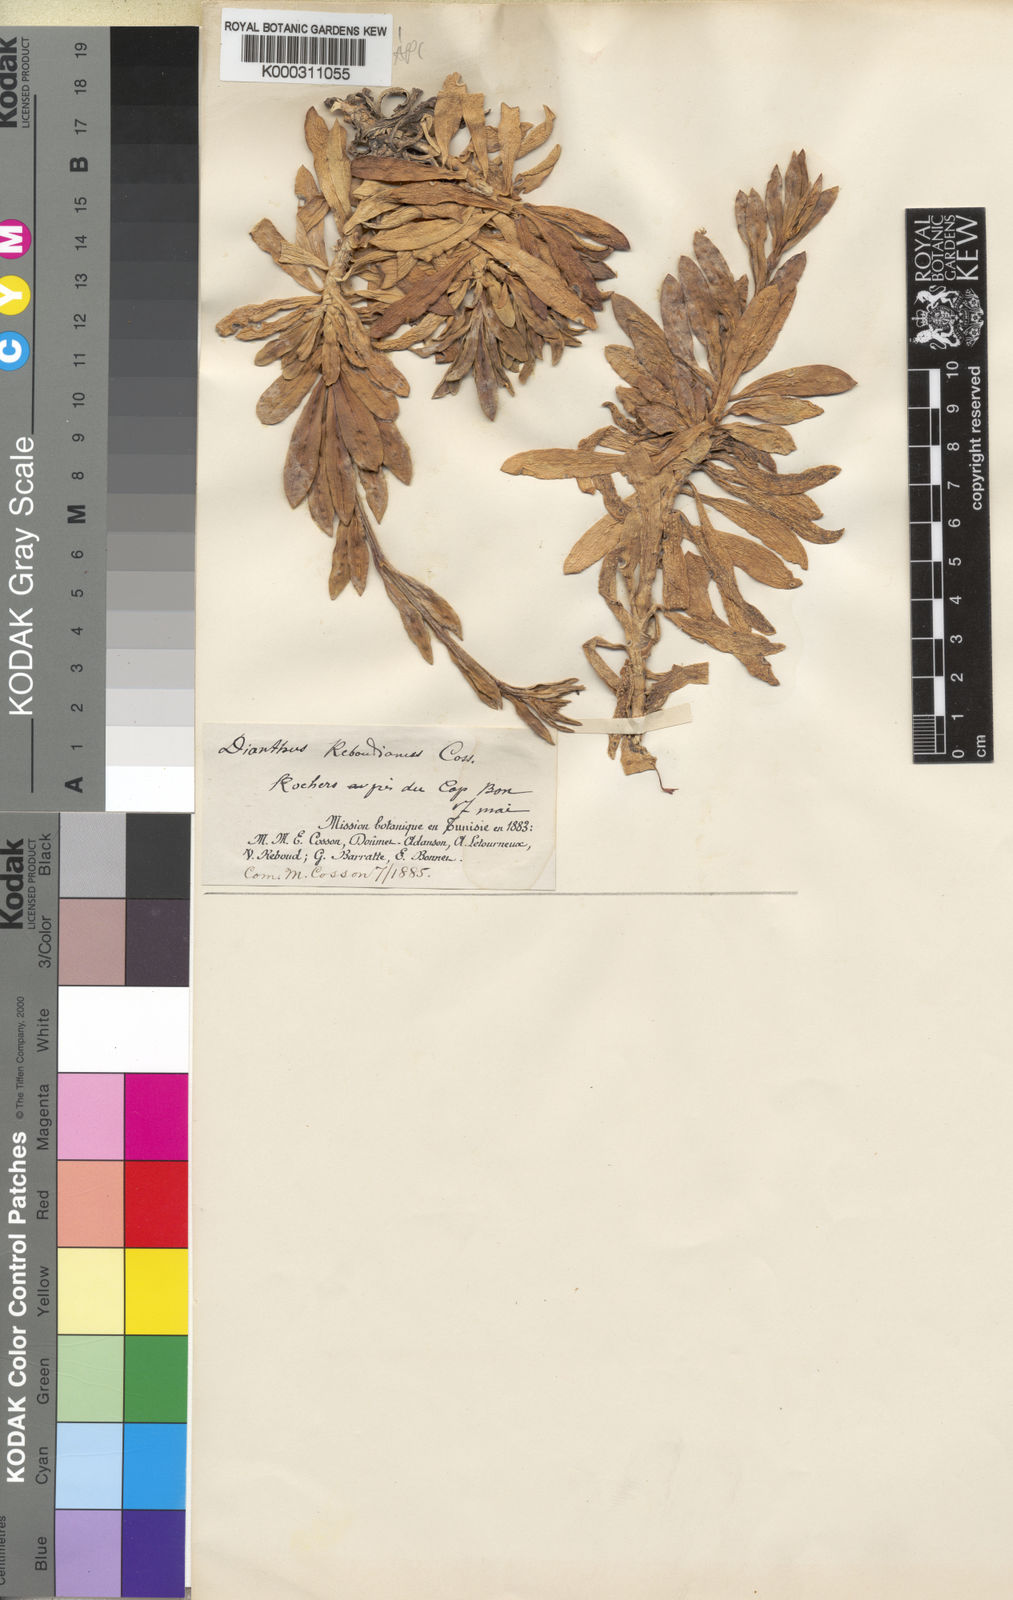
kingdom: Plantae
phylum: Tracheophyta
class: Magnoliopsida
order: Caryophyllales
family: Caryophyllaceae
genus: Dianthus
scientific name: Dianthus
